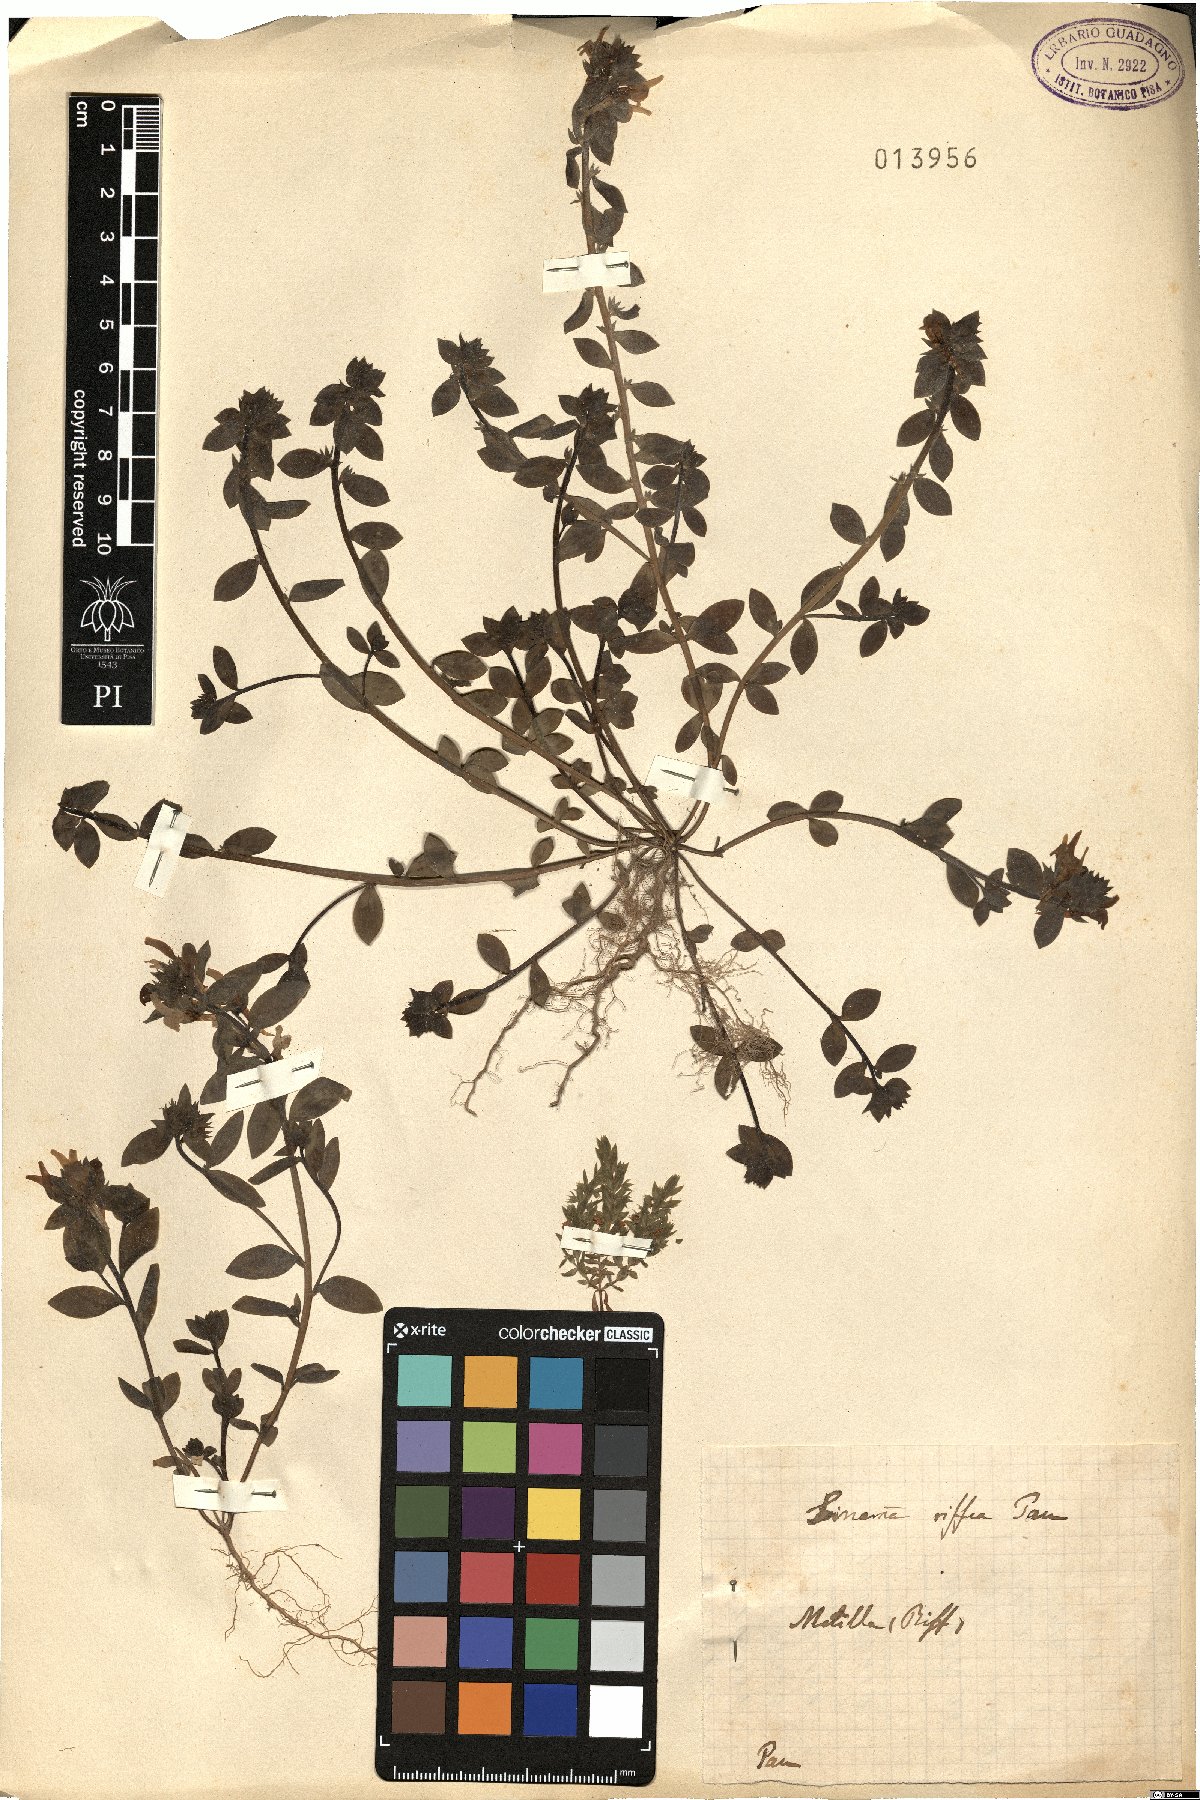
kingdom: Plantae
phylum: Tracheophyta
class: Magnoliopsida
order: Lamiales
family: Plantaginaceae
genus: Linaria
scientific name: Linaria riffea
